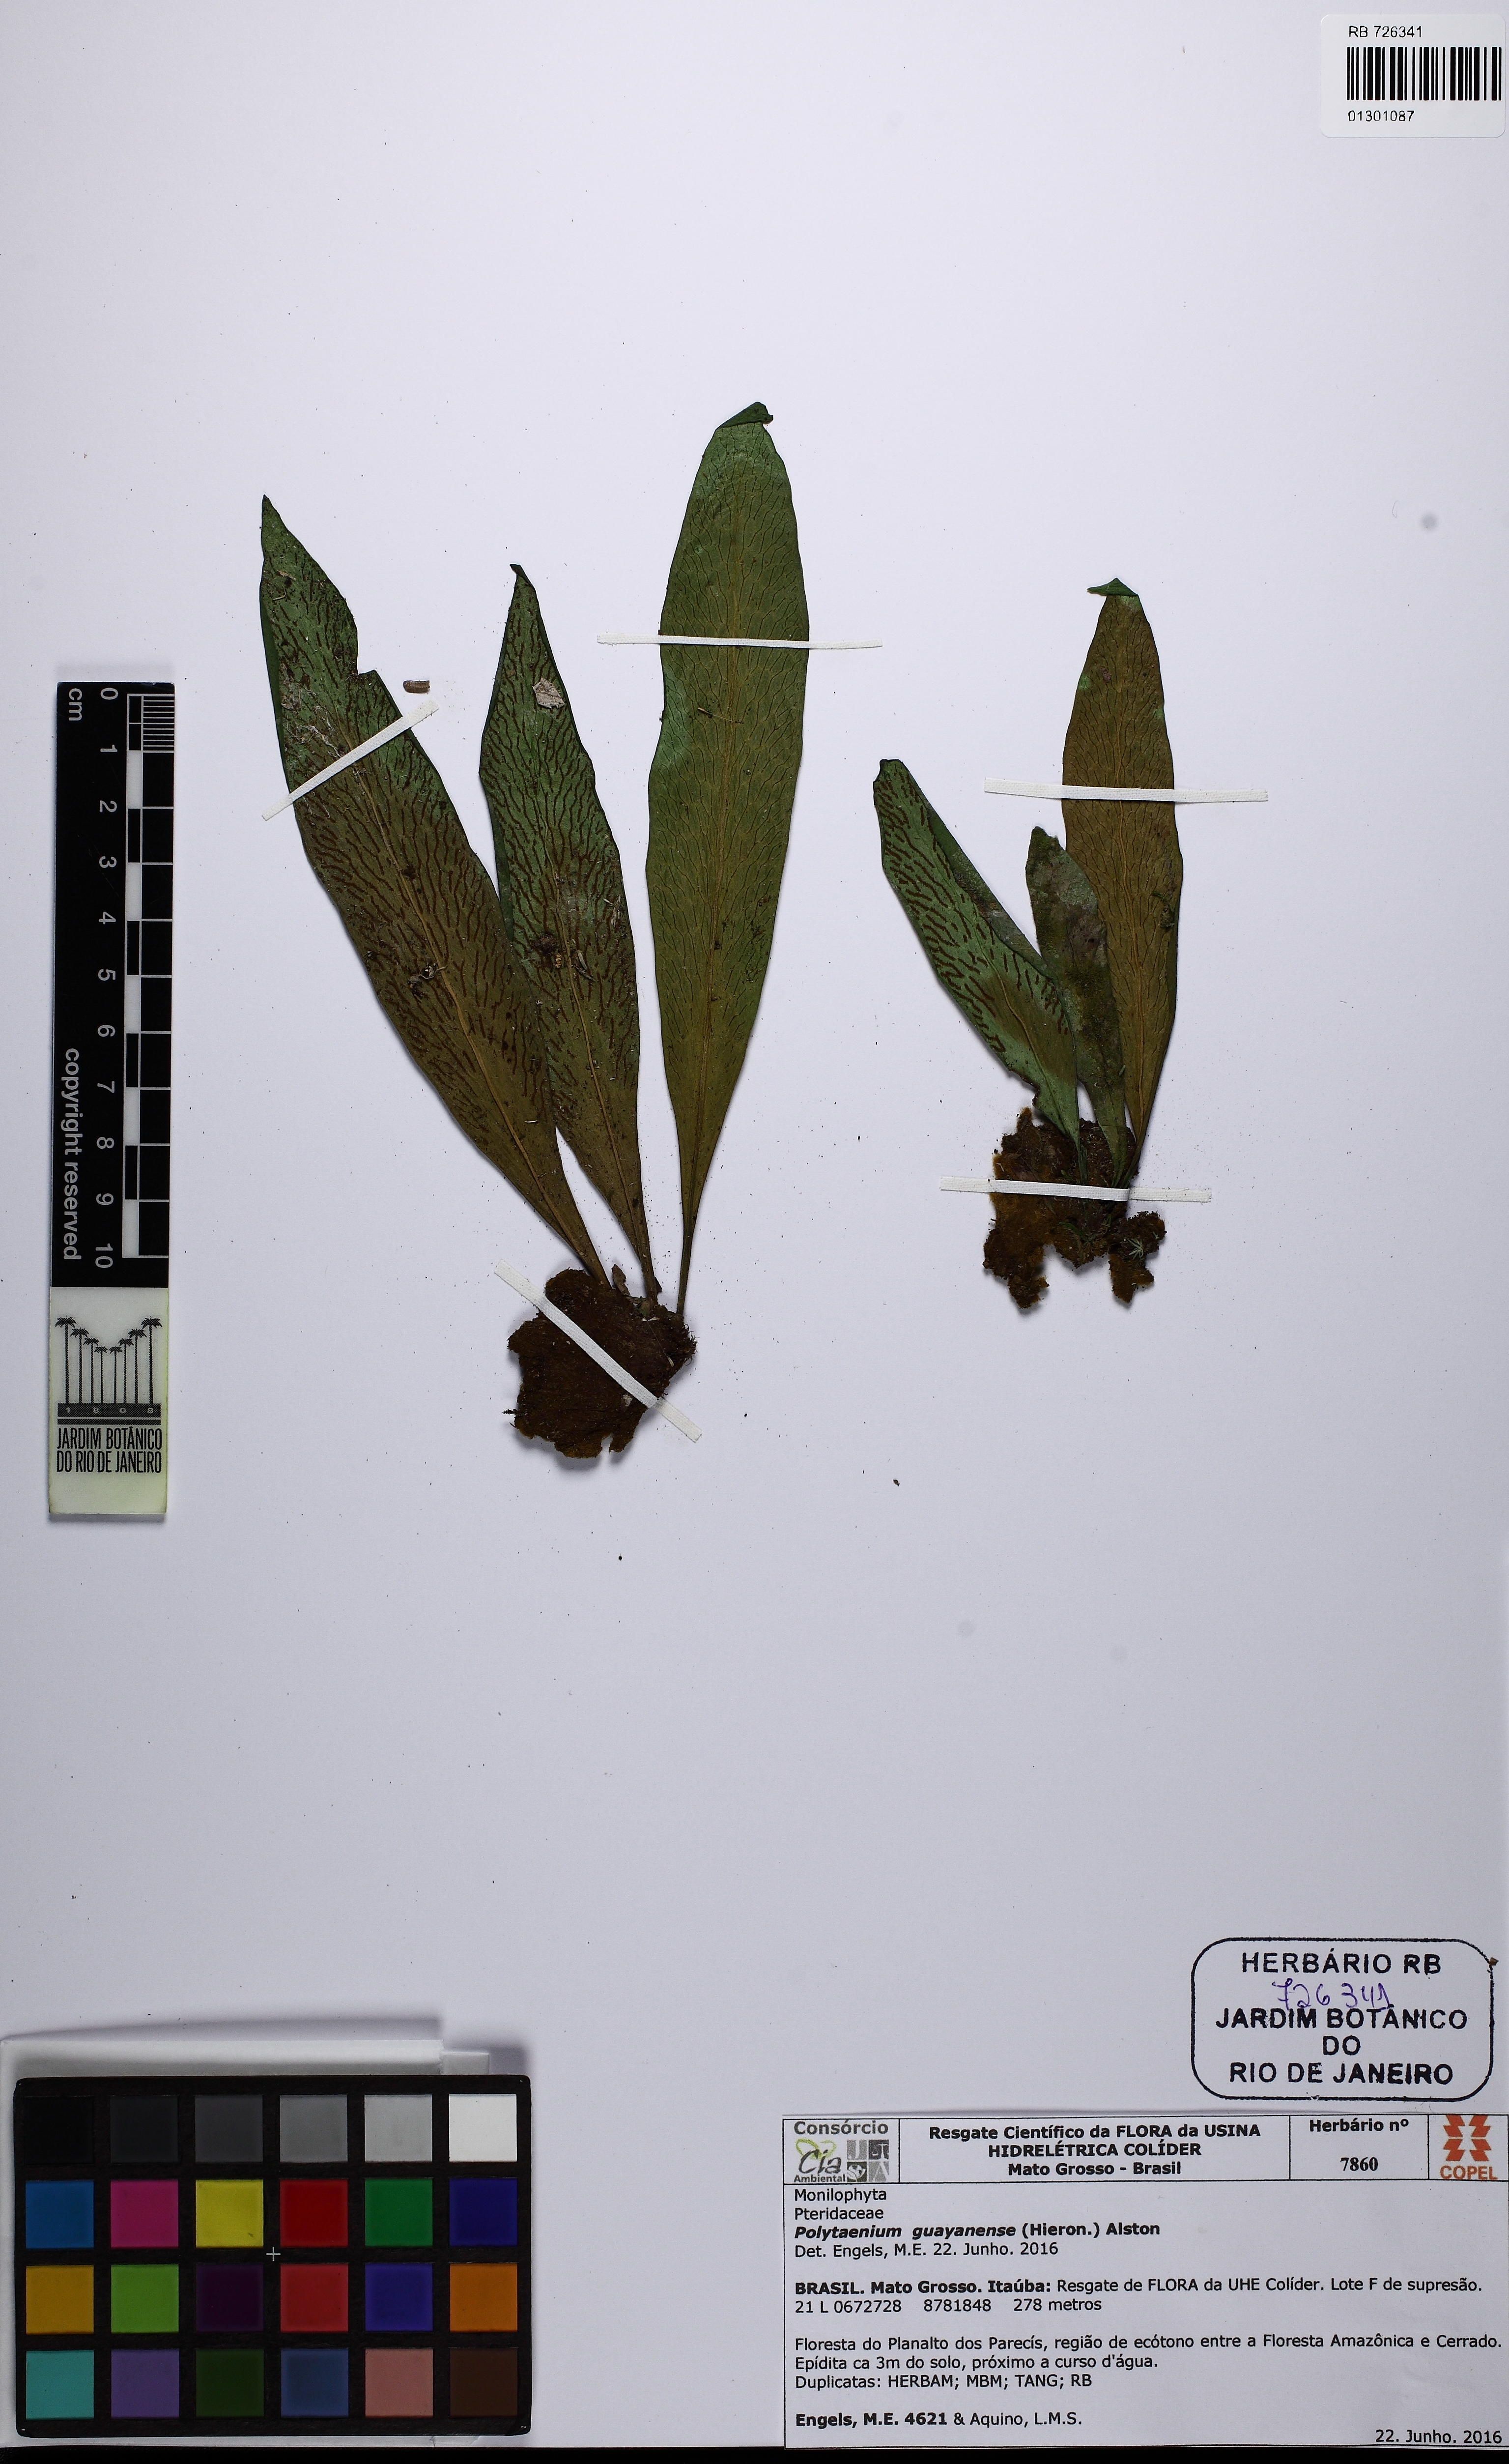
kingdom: Plantae
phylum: Tracheophyta
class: Polypodiopsida
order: Polypodiales
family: Pteridaceae
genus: Polytaenium
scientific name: Polytaenium guayanense
